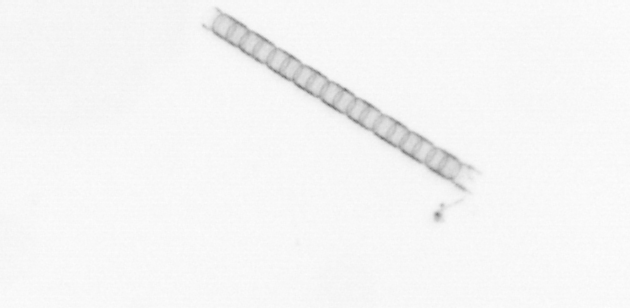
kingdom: Chromista
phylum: Ochrophyta
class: Bacillariophyceae
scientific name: Bacillariophyceae
